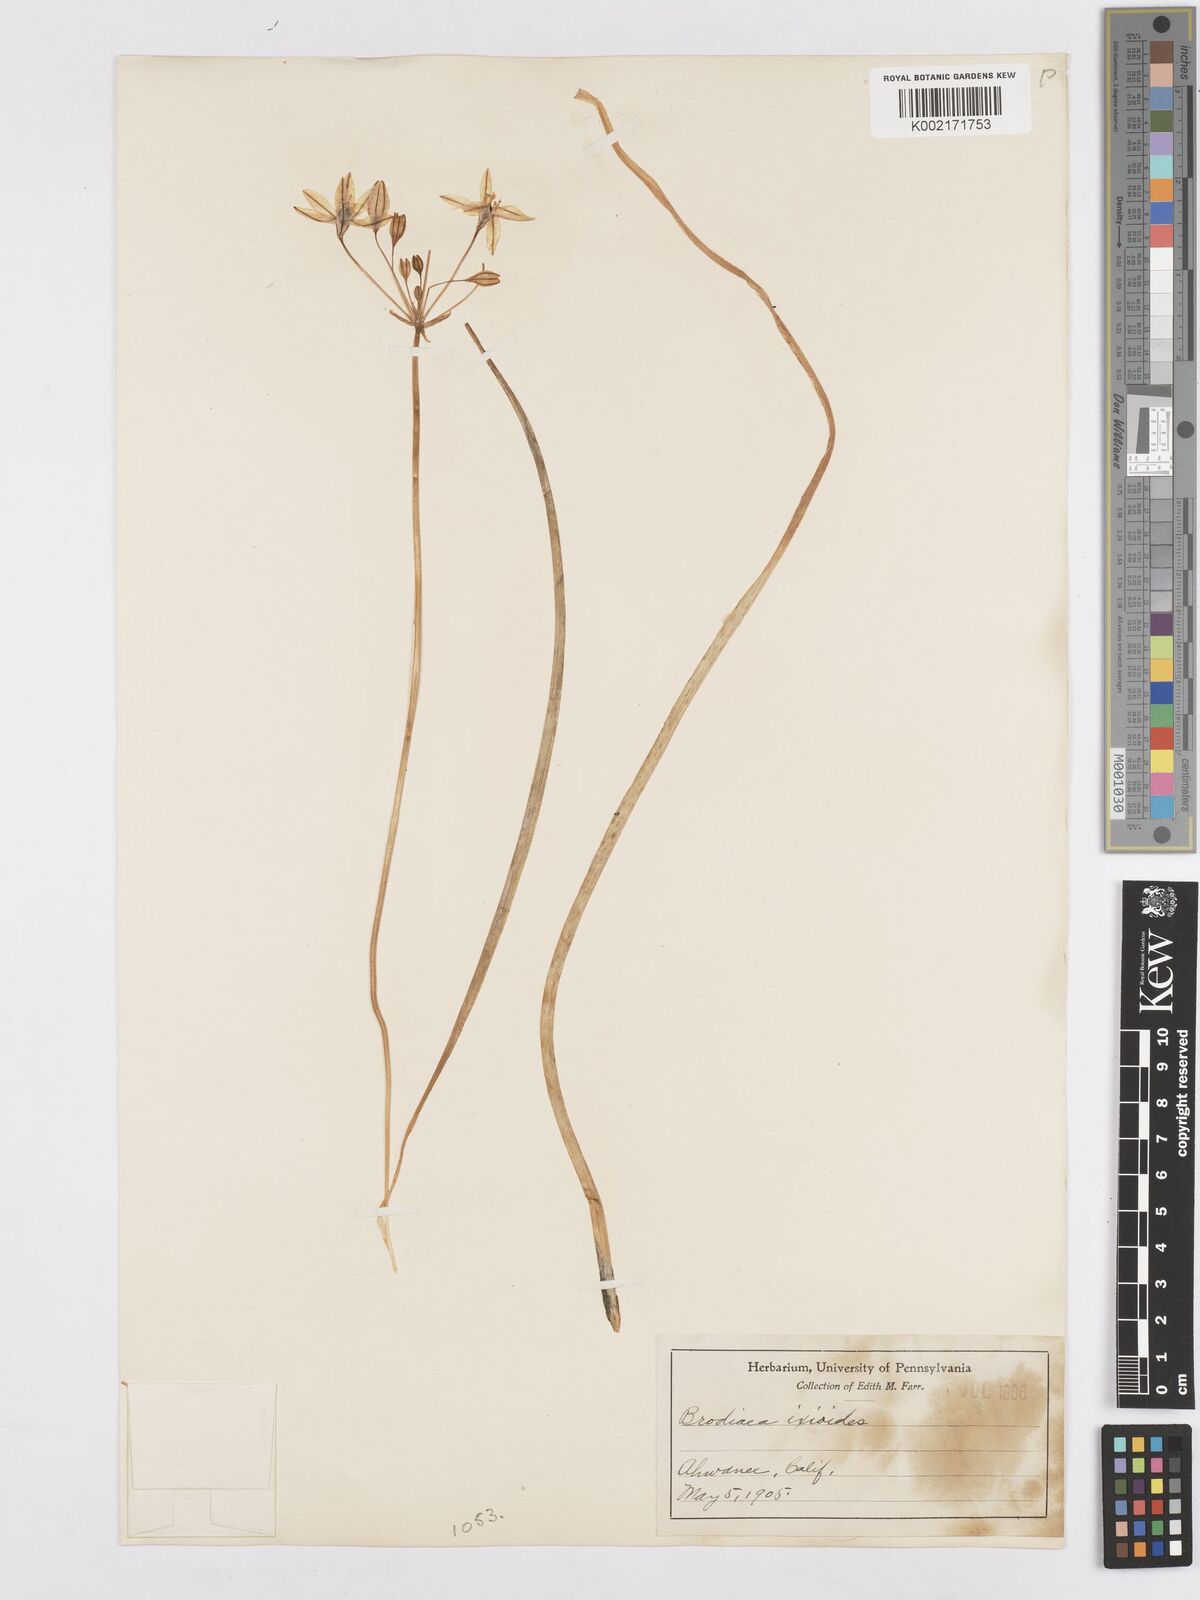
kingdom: Plantae
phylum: Tracheophyta
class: Liliopsida
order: Asparagales
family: Asparagaceae
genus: Triteleia
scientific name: Triteleia ixioides
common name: Yellow-brodiaea
